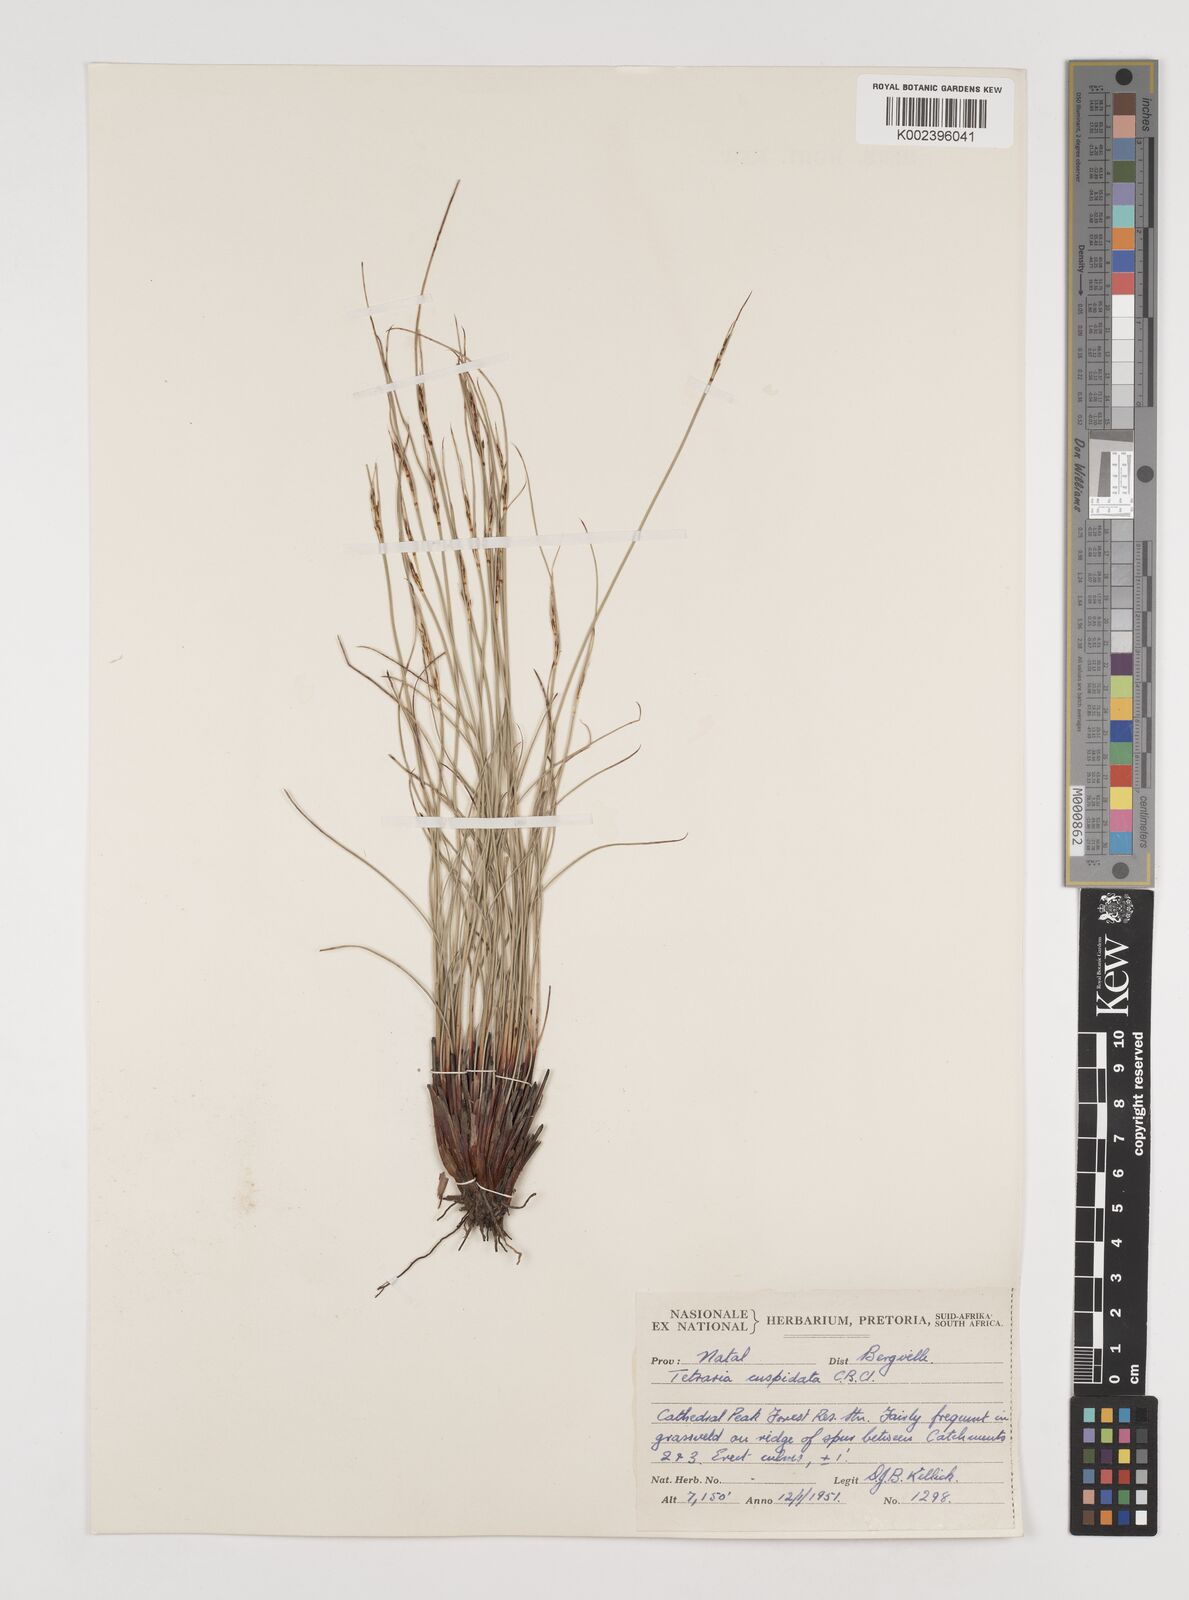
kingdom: Plantae
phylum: Tracheophyta
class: Liliopsida
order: Poales
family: Cyperaceae
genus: Schoenus
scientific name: Schoenus cuspidatus
